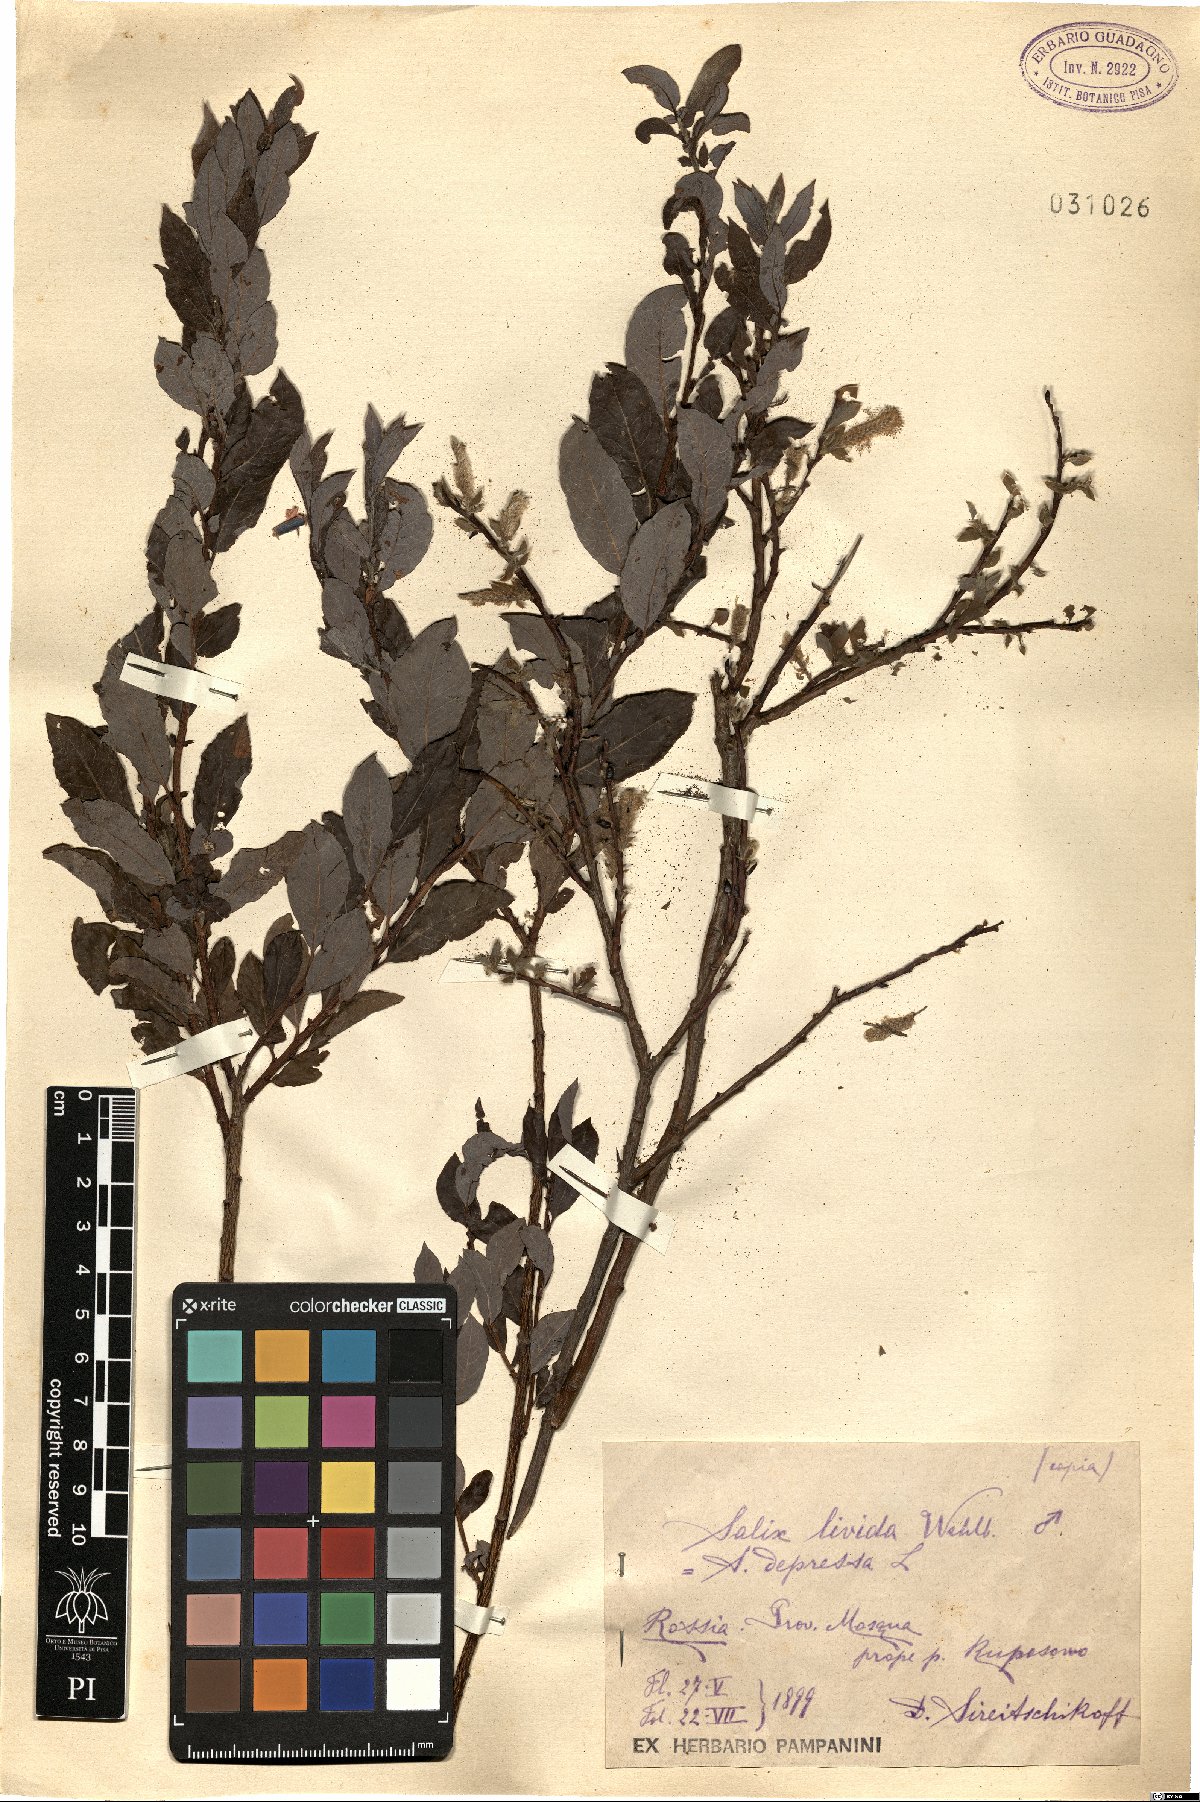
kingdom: Plantae
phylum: Tracheophyta
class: Magnoliopsida
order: Malpighiales
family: Salicaceae
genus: Salix
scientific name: Salix starkeana
